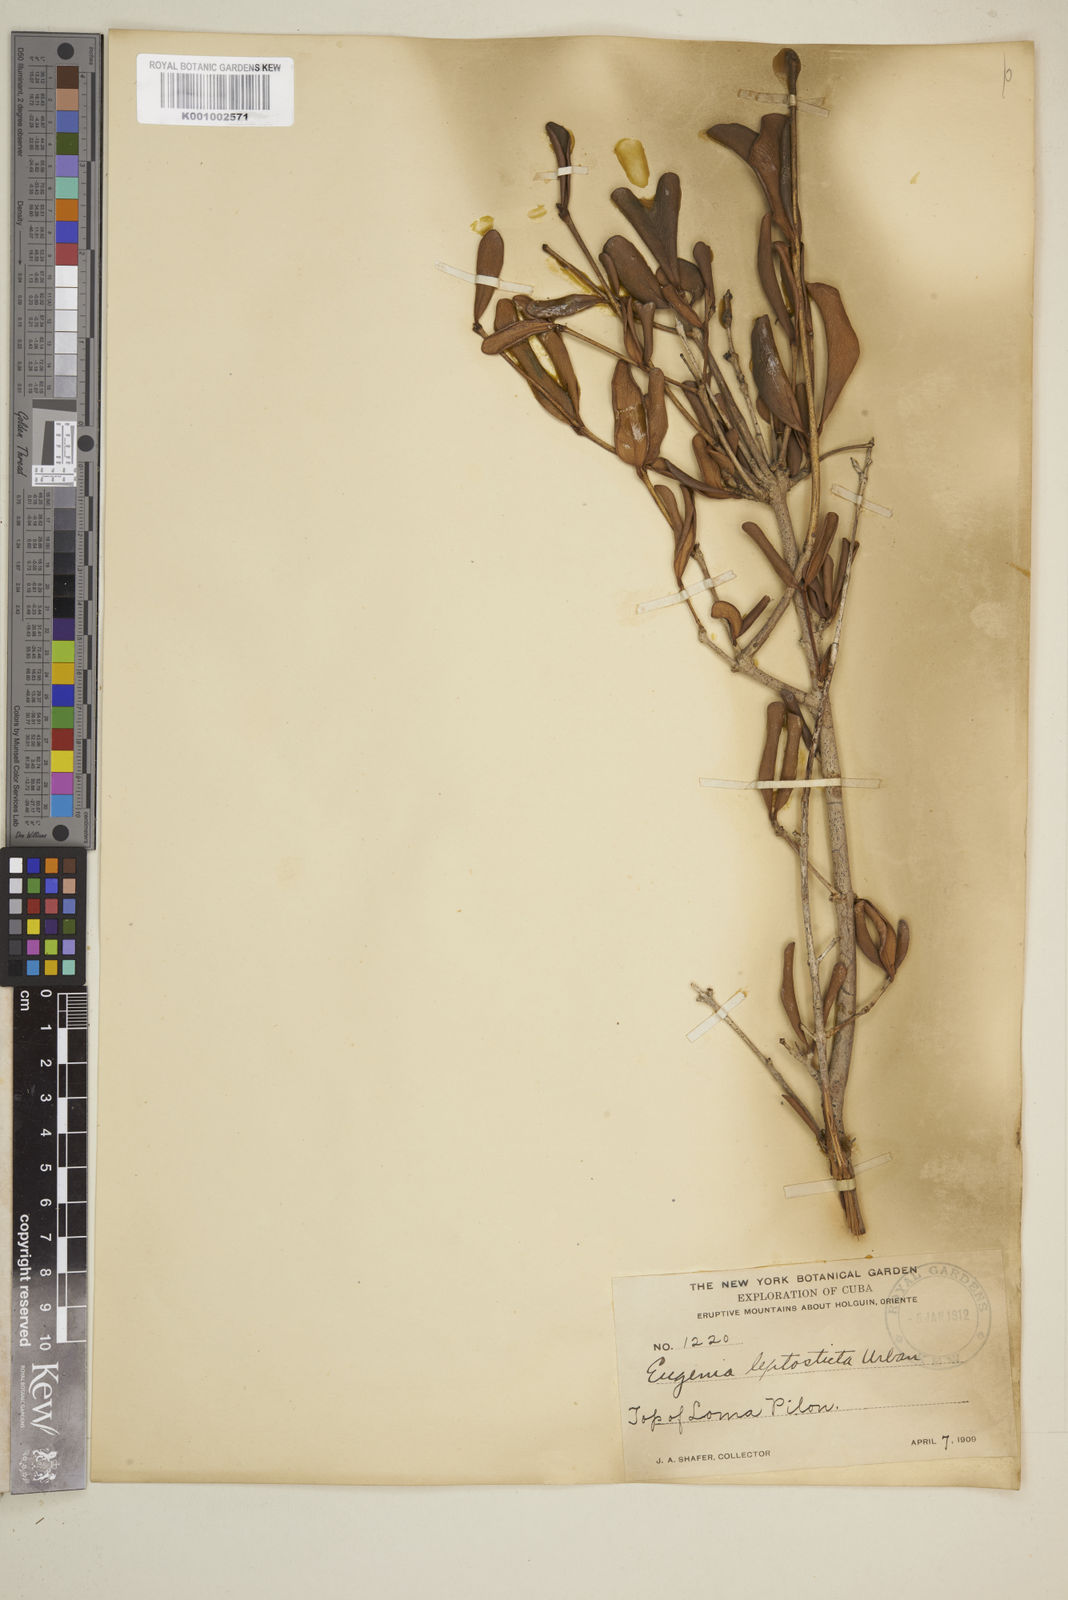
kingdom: Plantae
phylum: Tracheophyta
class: Magnoliopsida
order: Myrtales
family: Myrtaceae
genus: Eugenia
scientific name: Eugenia camarioca
